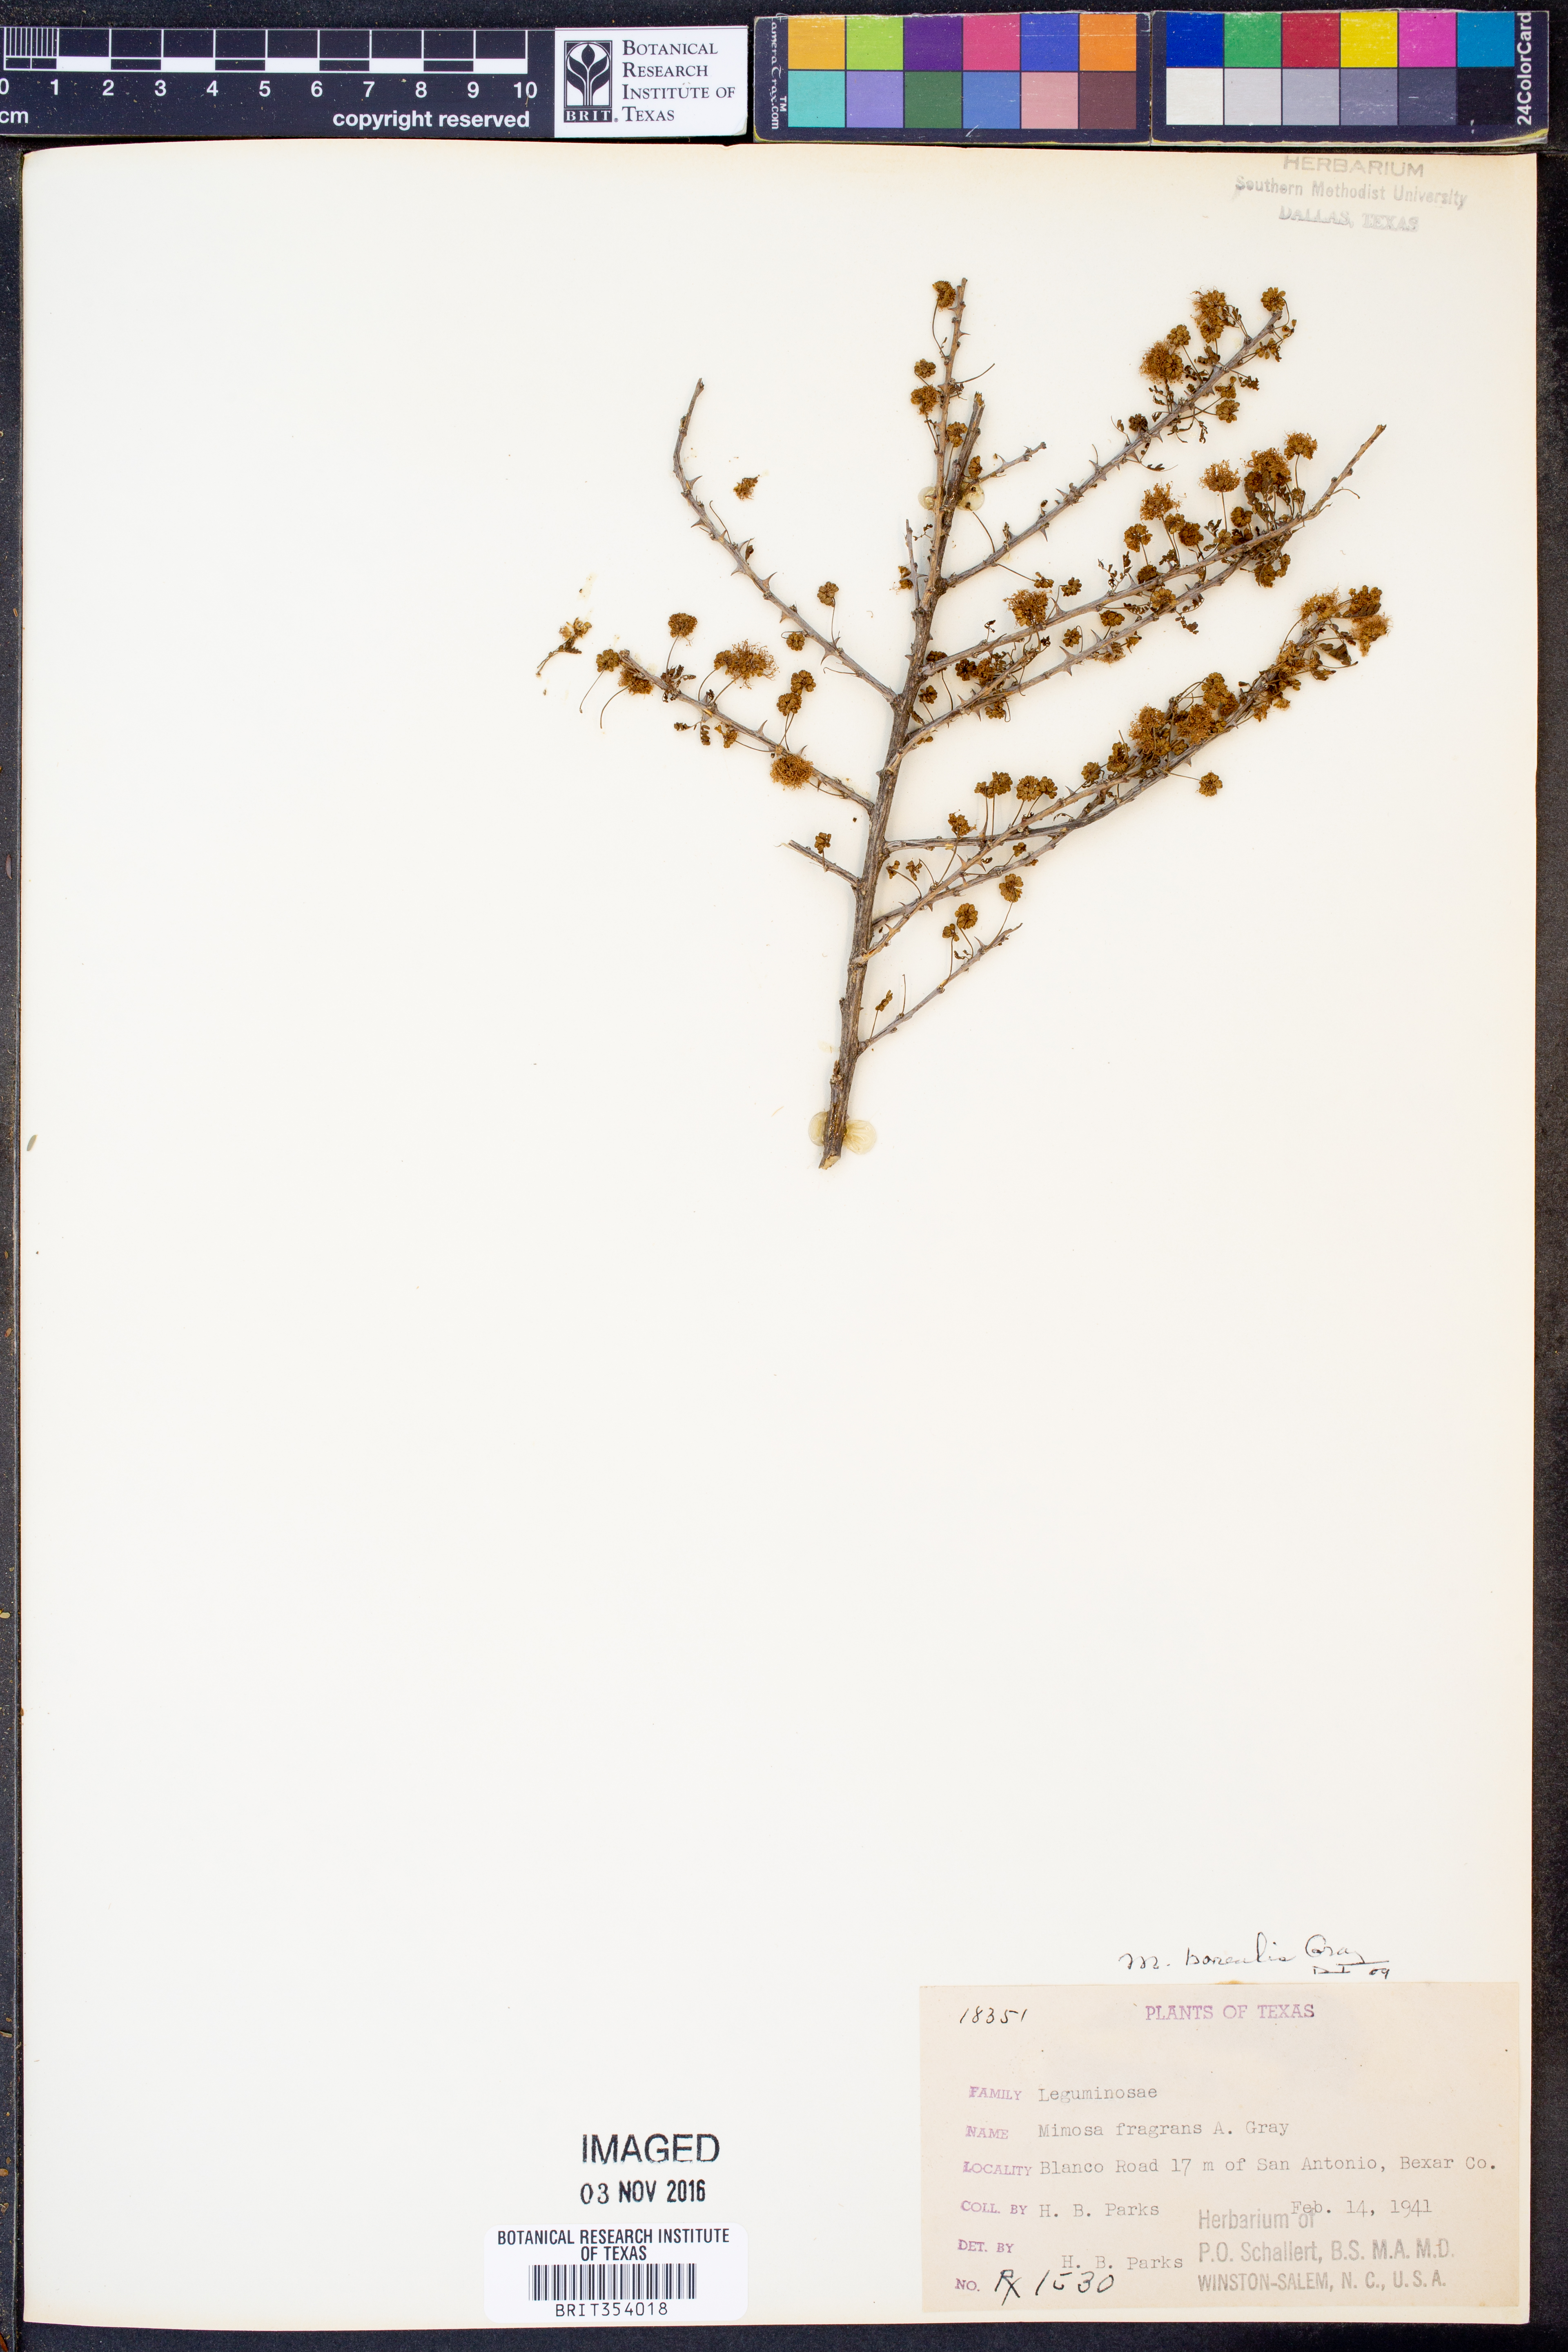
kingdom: Plantae
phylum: Tracheophyta
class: Magnoliopsida
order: Fabales
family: Fabaceae
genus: Mimosa
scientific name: Mimosa borealis
